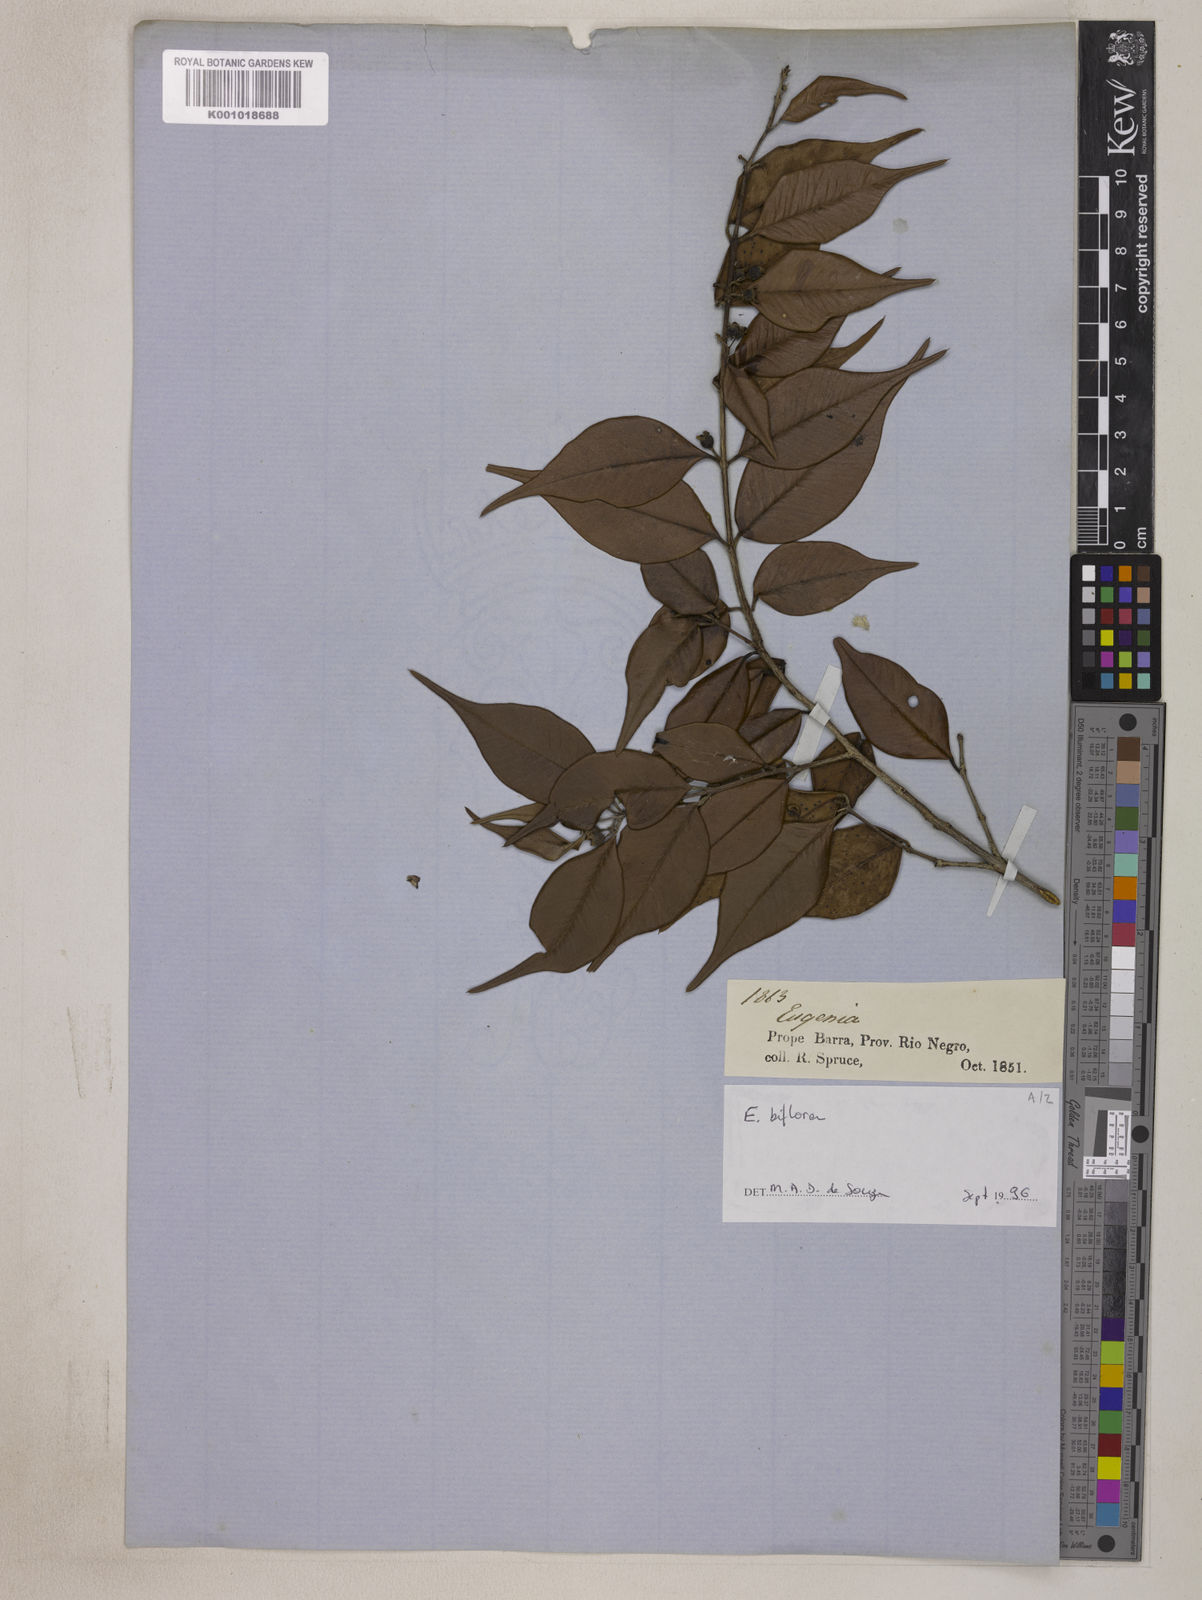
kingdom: Plantae
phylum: Tracheophyta
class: Magnoliopsida
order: Myrtales
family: Myrtaceae
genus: Eugenia
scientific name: Eugenia biflora
